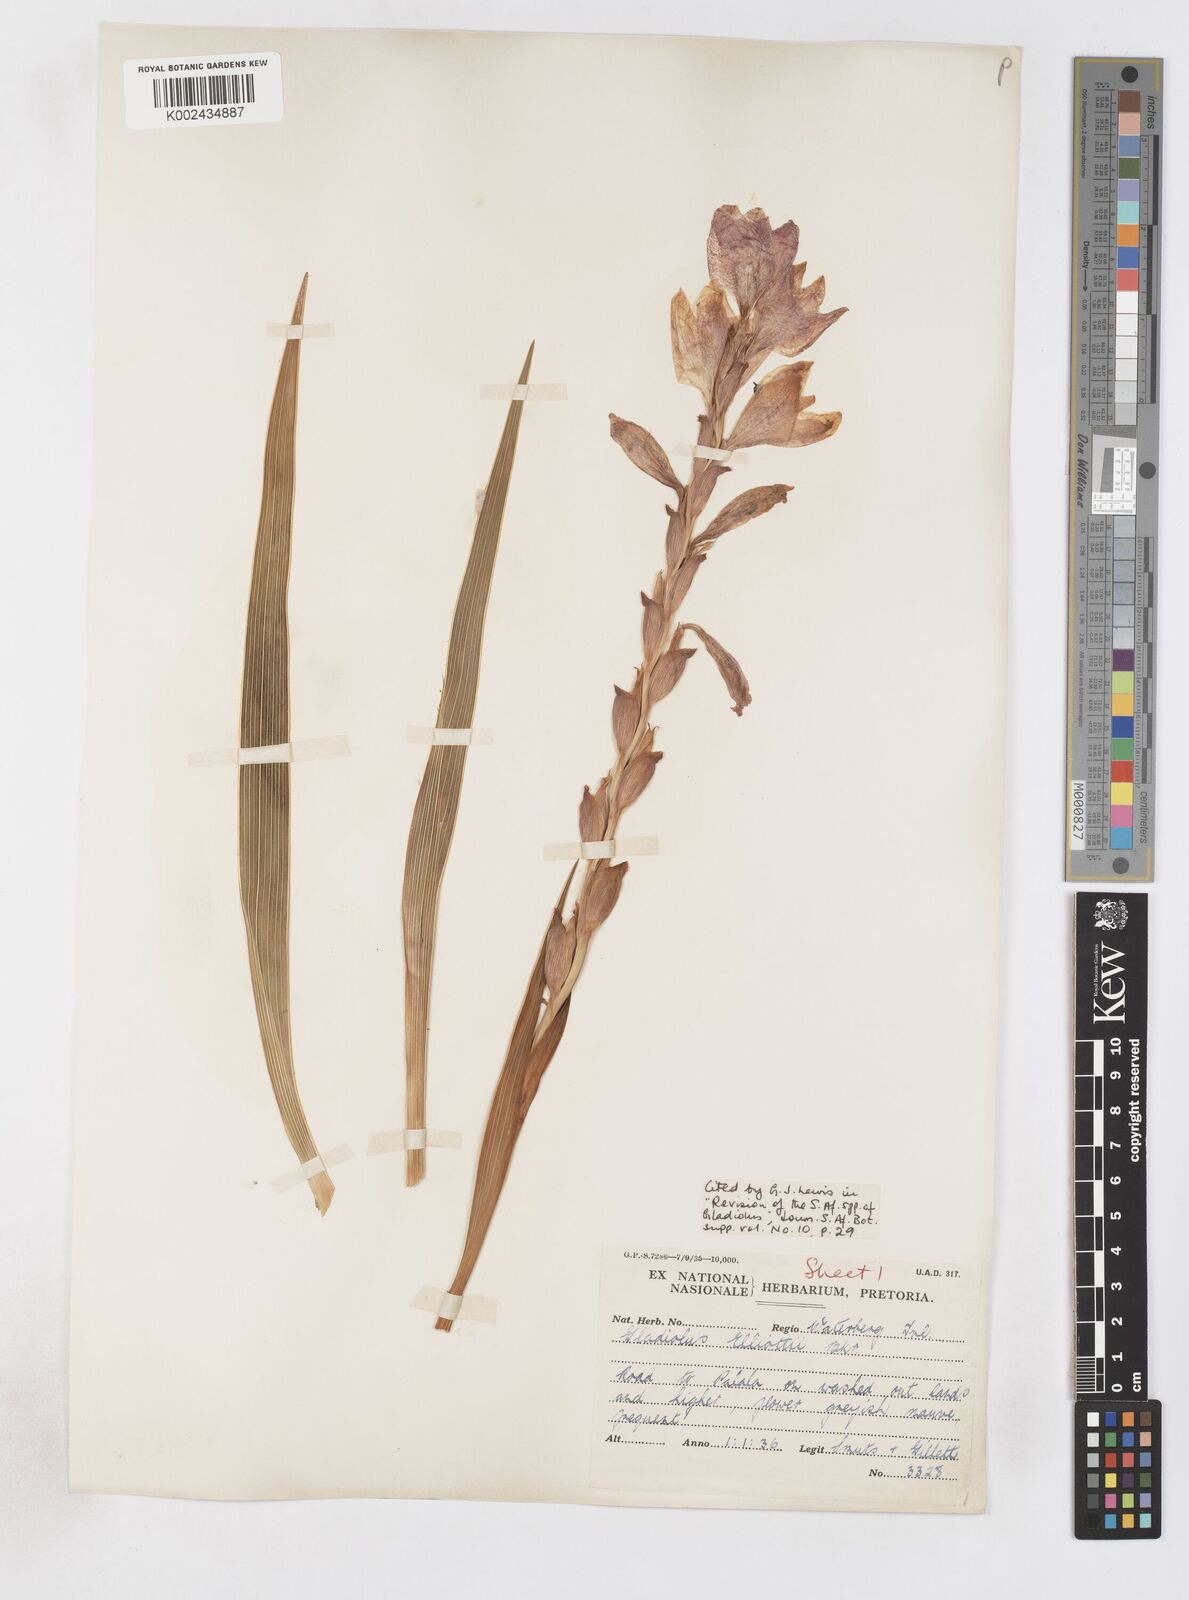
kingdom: Plantae
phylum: Tracheophyta
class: Liliopsida
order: Asparagales
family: Iridaceae
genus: Gladiolus
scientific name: Gladiolus elliotii
